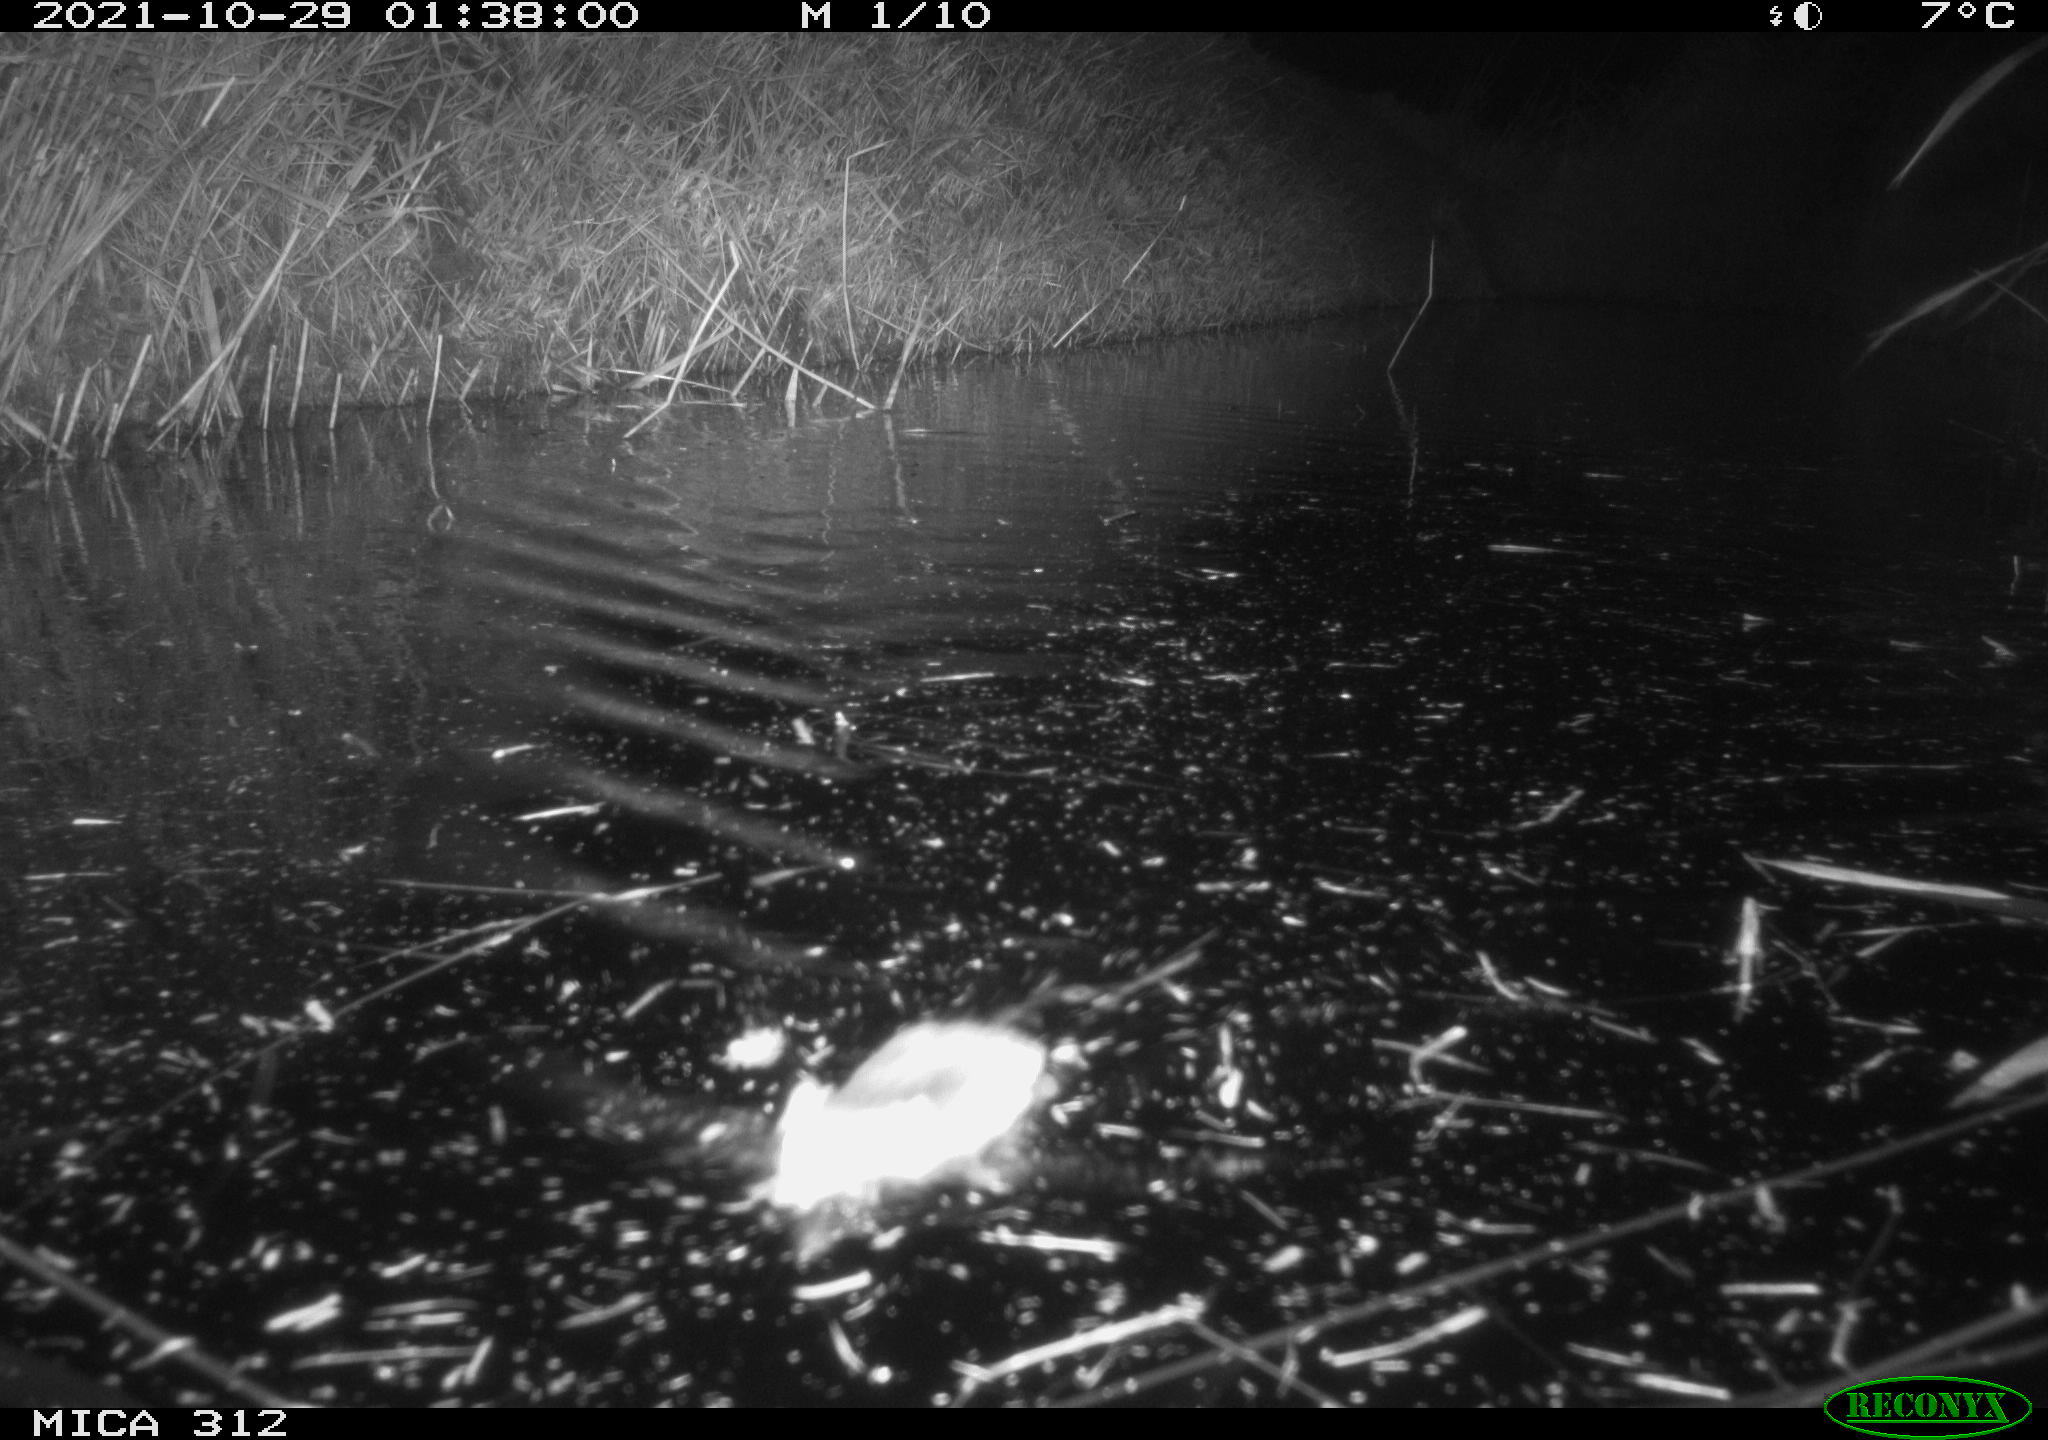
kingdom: Animalia
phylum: Chordata
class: Mammalia
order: Rodentia
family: Muridae
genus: Rattus
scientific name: Rattus norvegicus
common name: Brown rat
